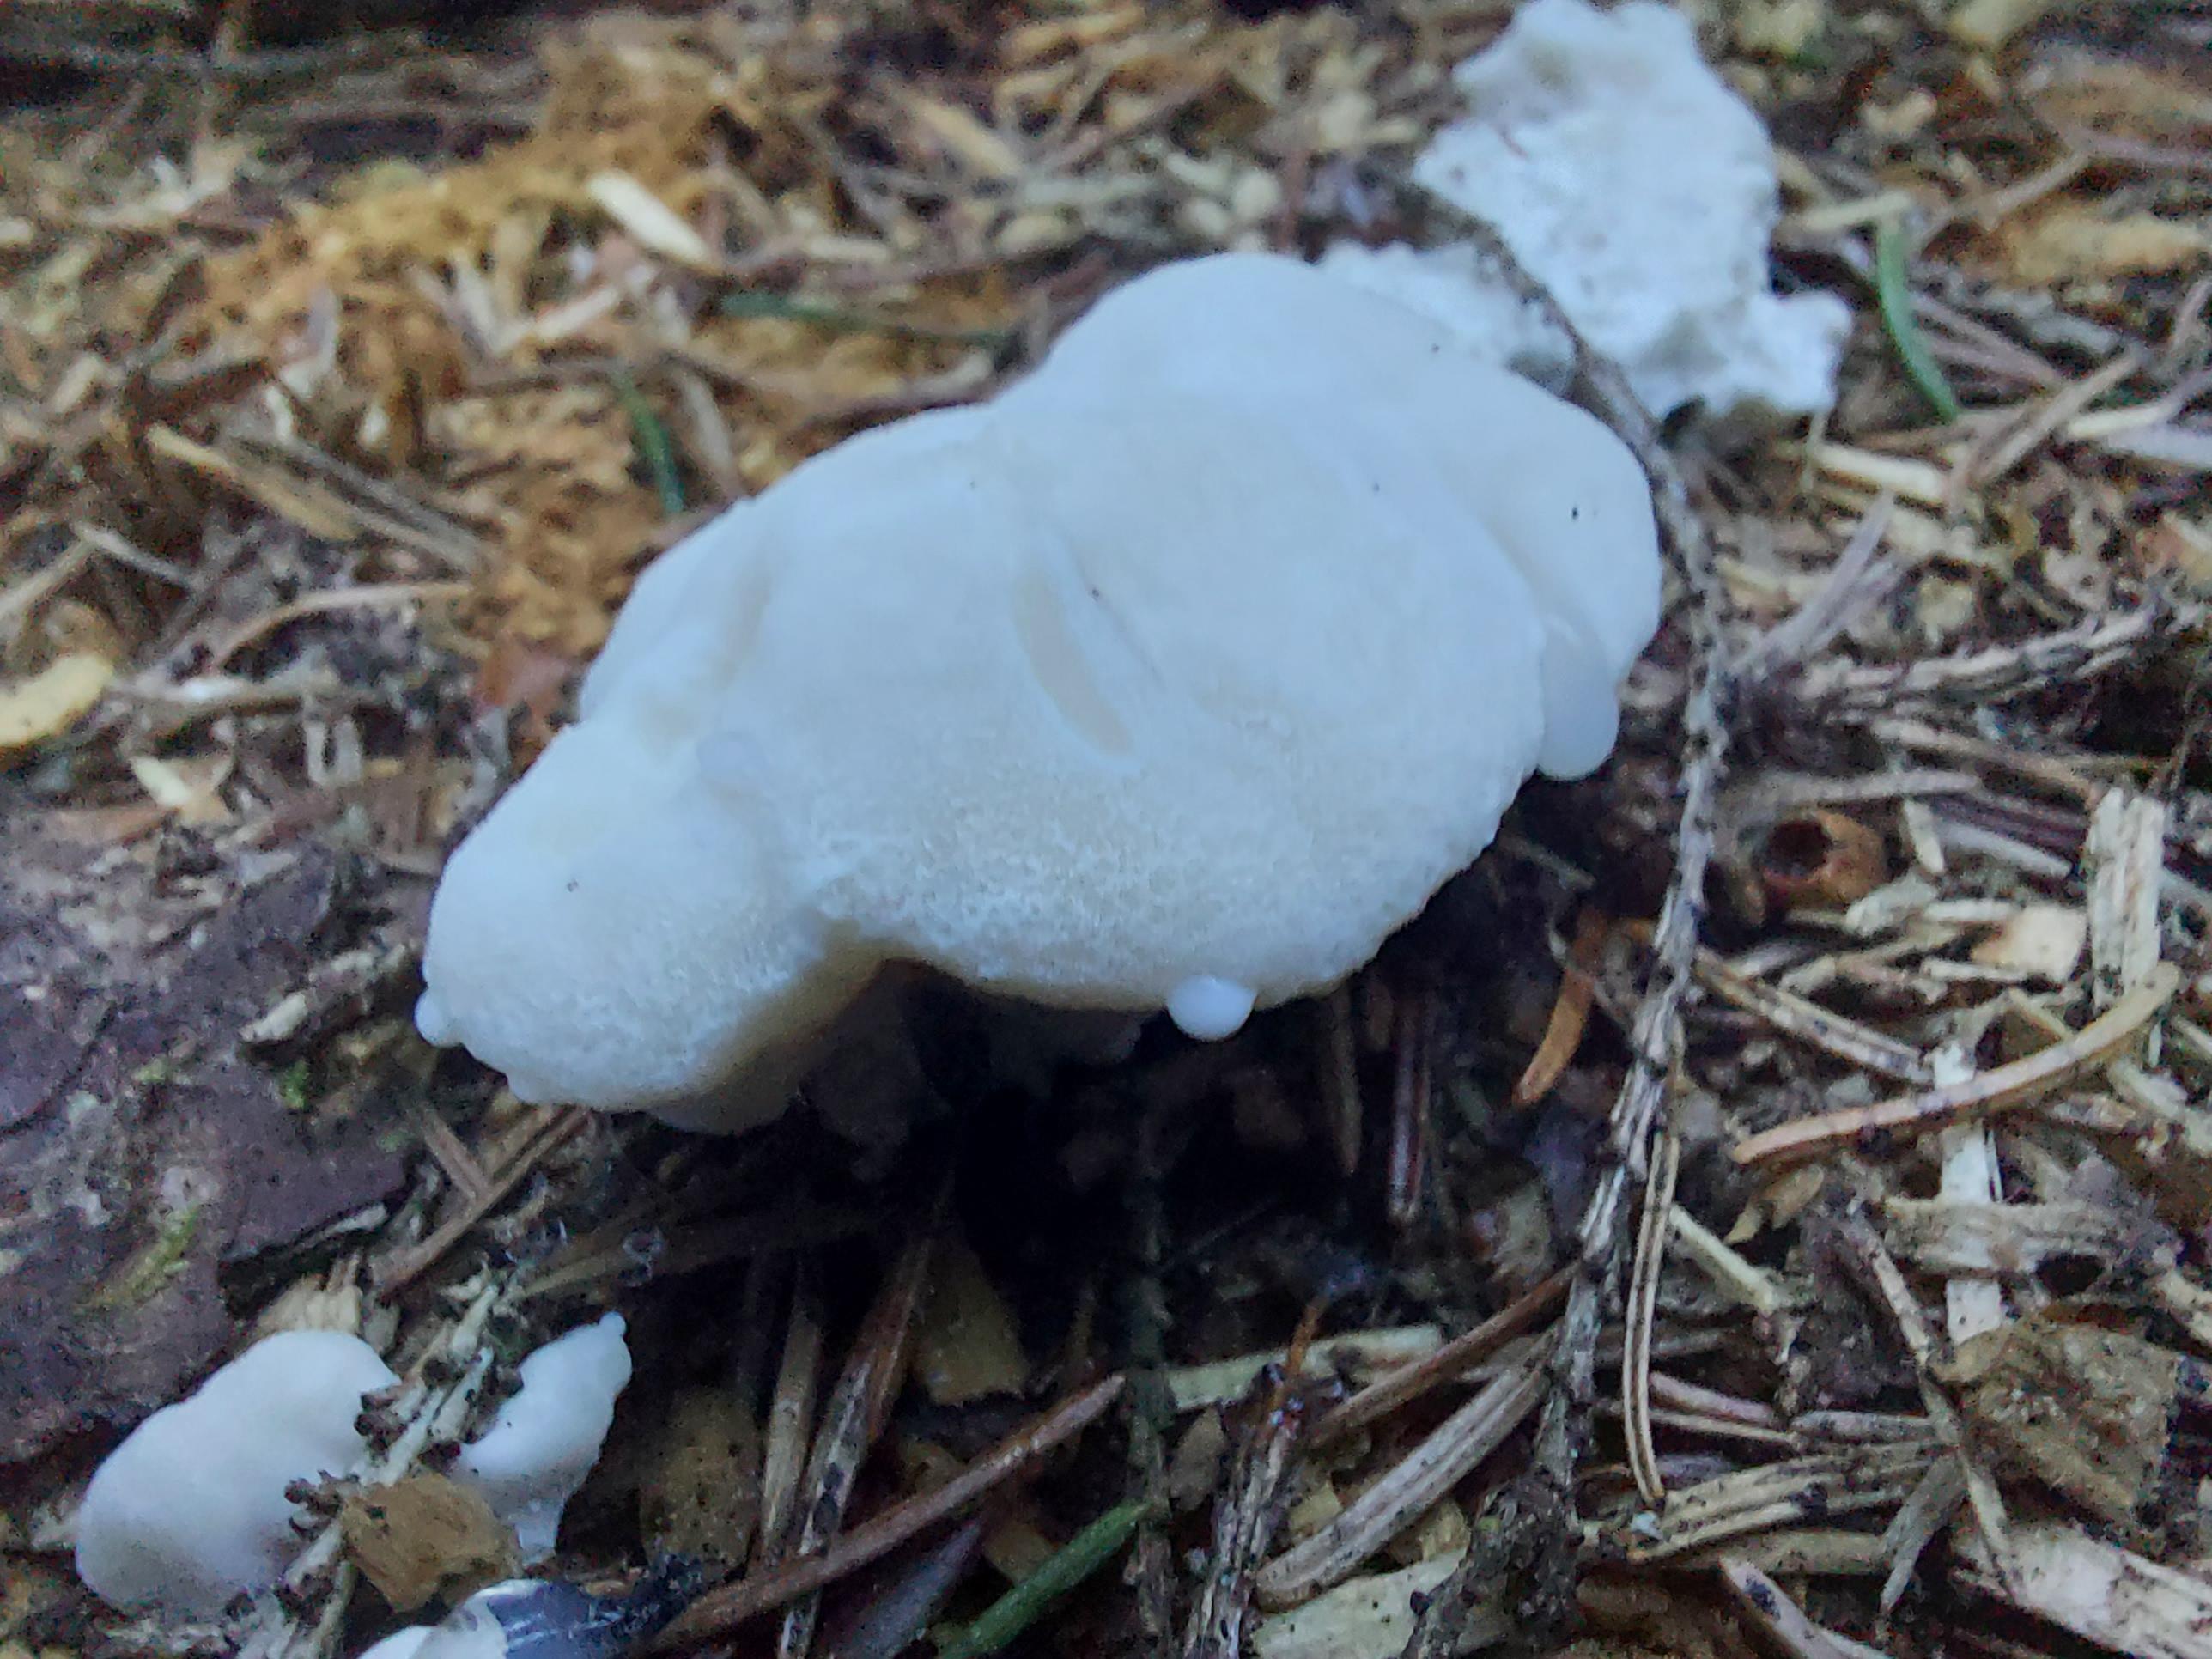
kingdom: Fungi
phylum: Basidiomycota
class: Agaricomycetes
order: Polyporales
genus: Amaropostia
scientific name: Amaropostia stiptica
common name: bitter kødporesvamp
